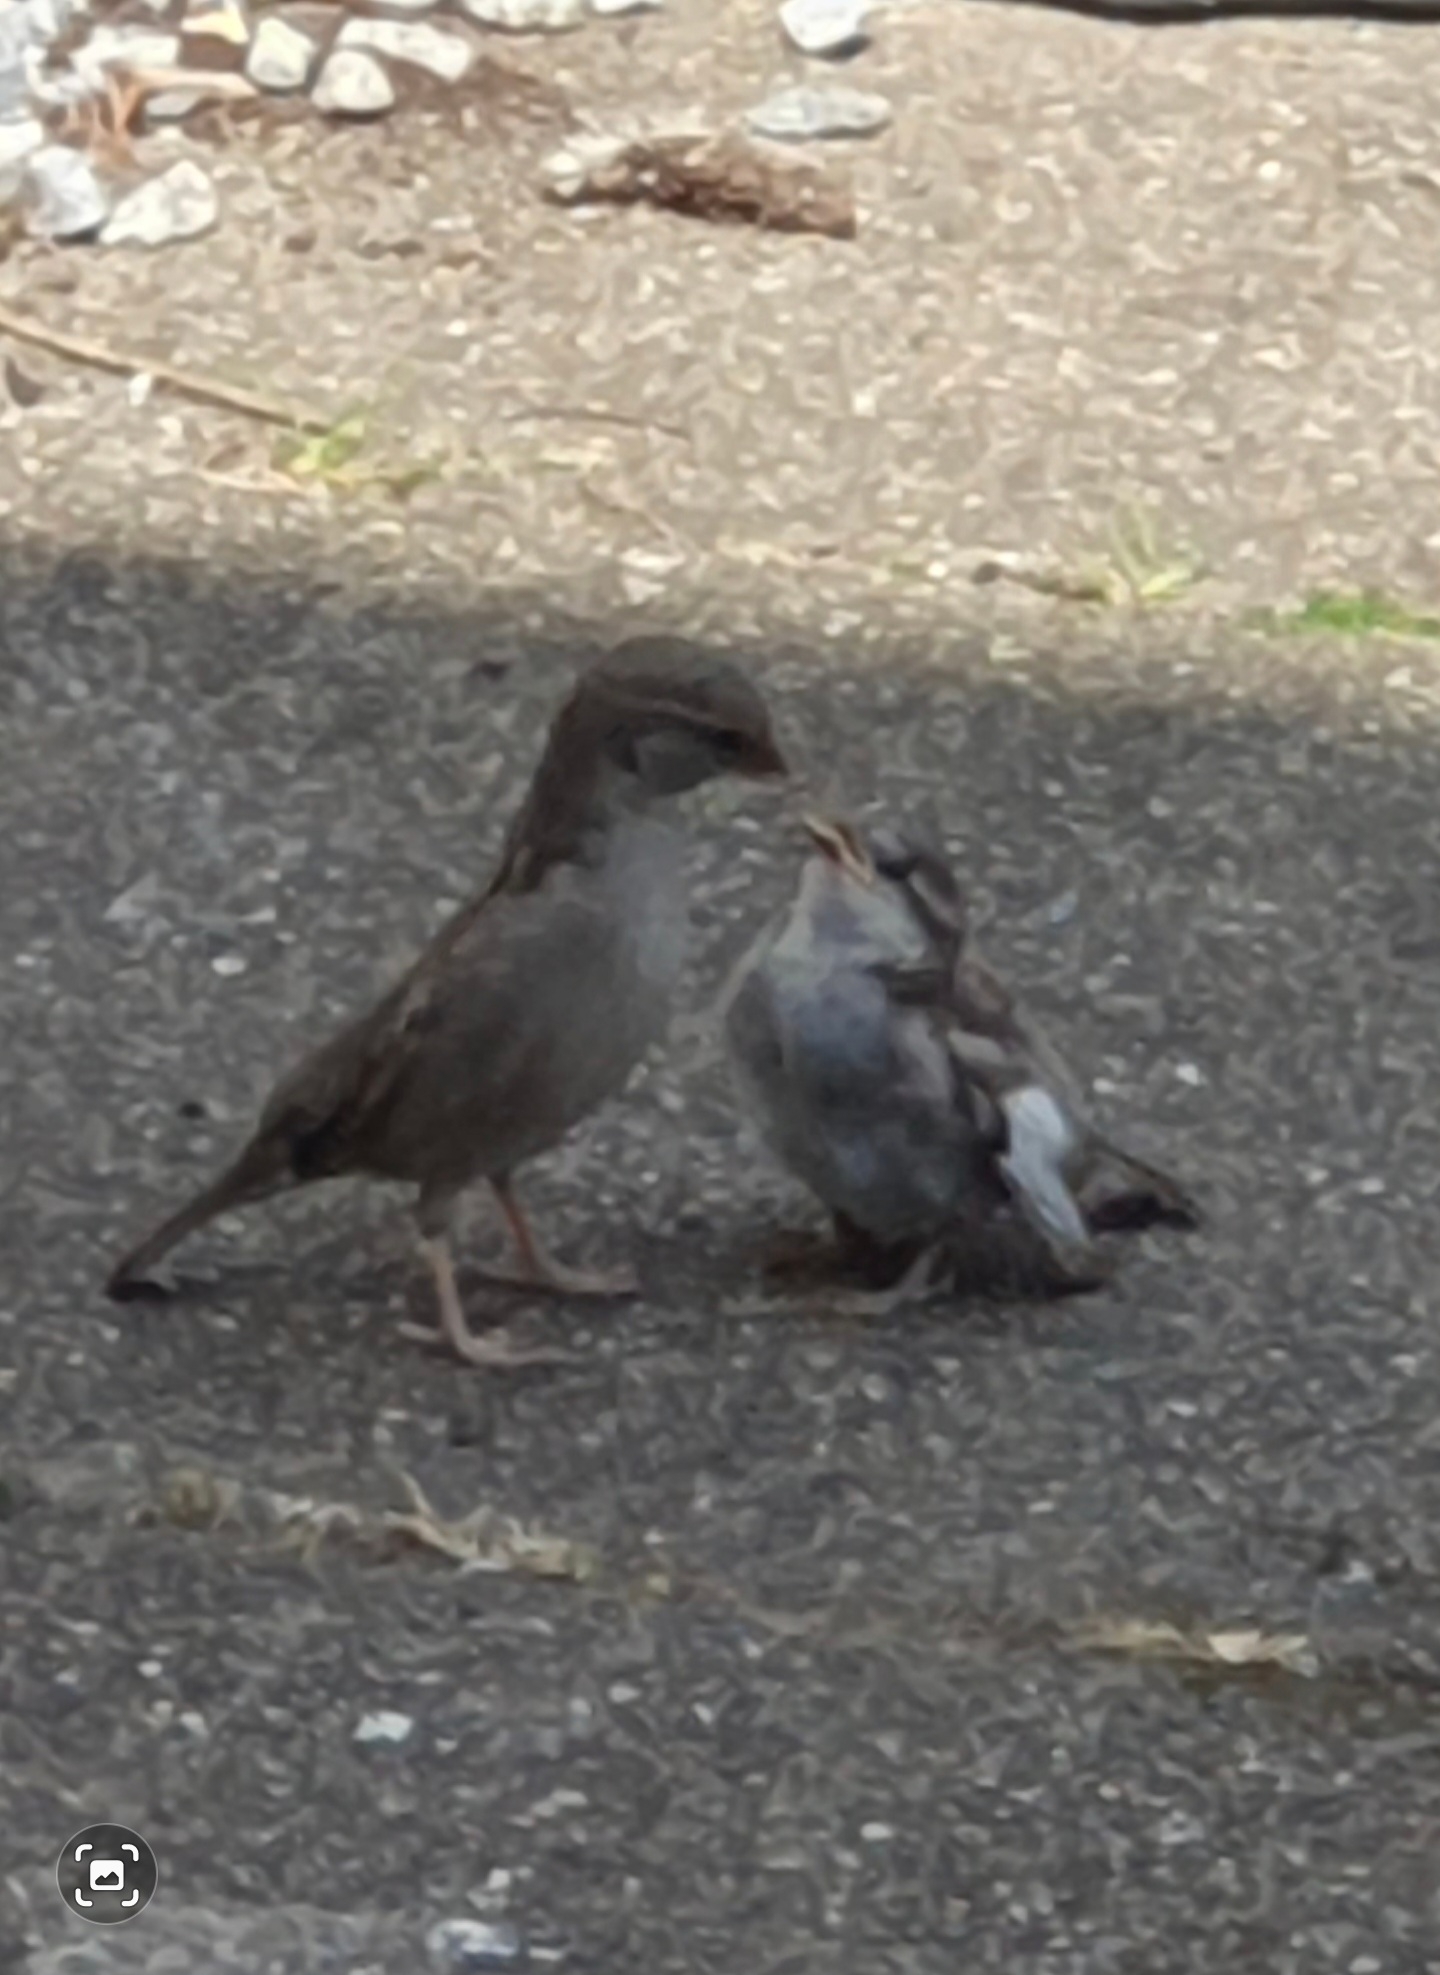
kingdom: Animalia
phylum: Chordata
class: Aves
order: Passeriformes
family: Passeridae
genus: Passer
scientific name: Passer domesticus
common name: Gråspurv
